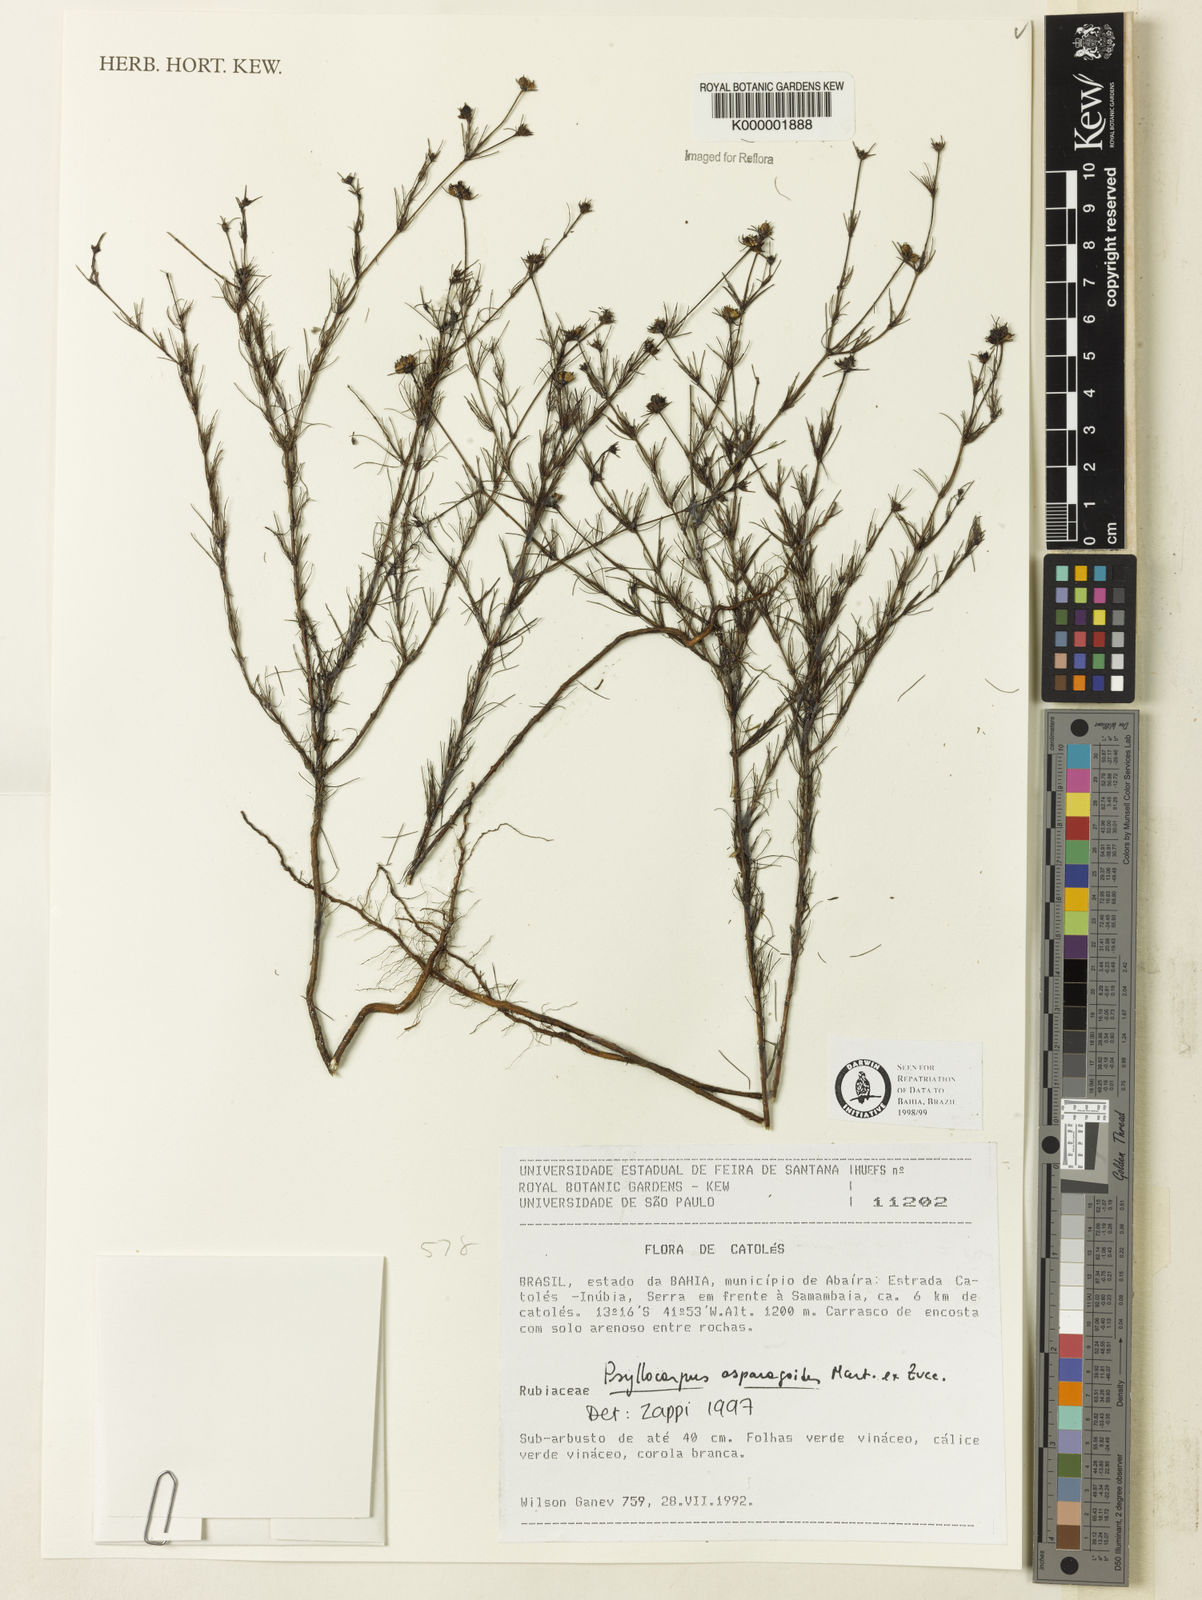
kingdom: Plantae
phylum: Tracheophyta
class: Magnoliopsida
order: Gentianales
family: Rubiaceae
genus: Psyllocarpus
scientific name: Psyllocarpus asparagoides
